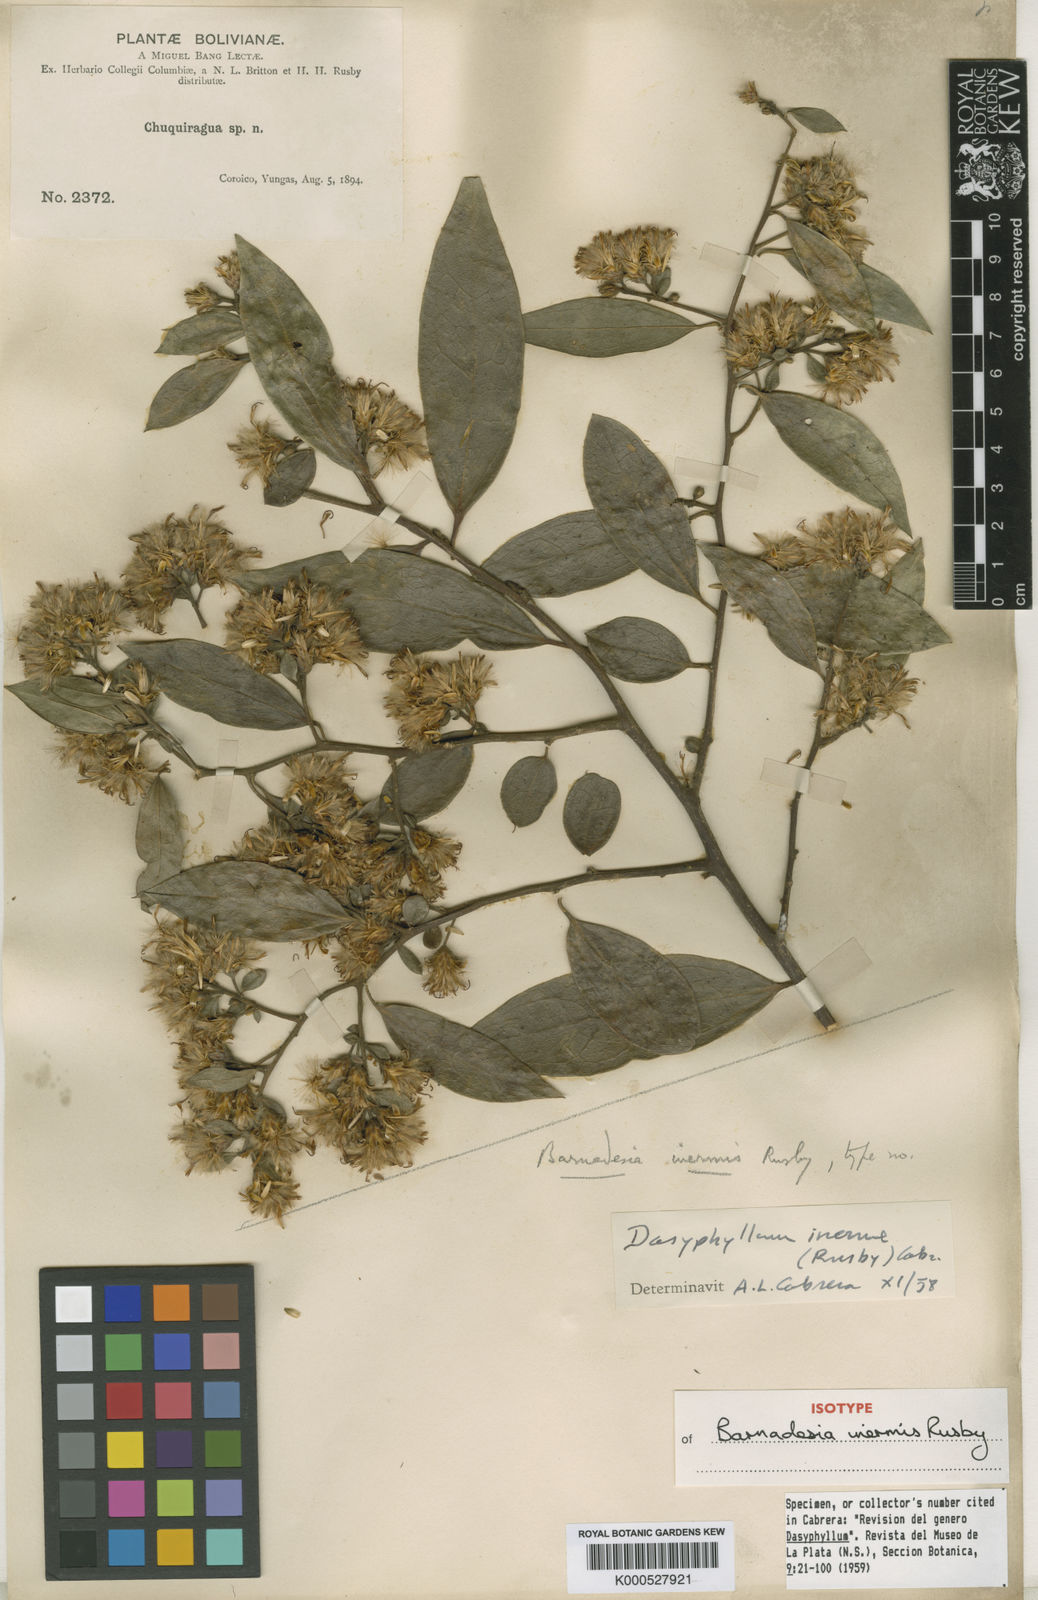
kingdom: Plantae
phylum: Tracheophyta
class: Magnoliopsida
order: Asterales
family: Asteraceae
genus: Dasyphyllum
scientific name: Dasyphyllum inerme
